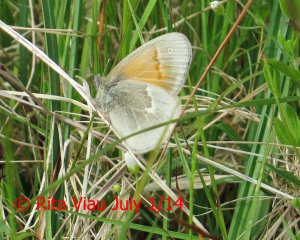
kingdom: Animalia
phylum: Arthropoda
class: Insecta
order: Lepidoptera
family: Nymphalidae
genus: Coenonympha
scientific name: Coenonympha tullia
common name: Large Heath
